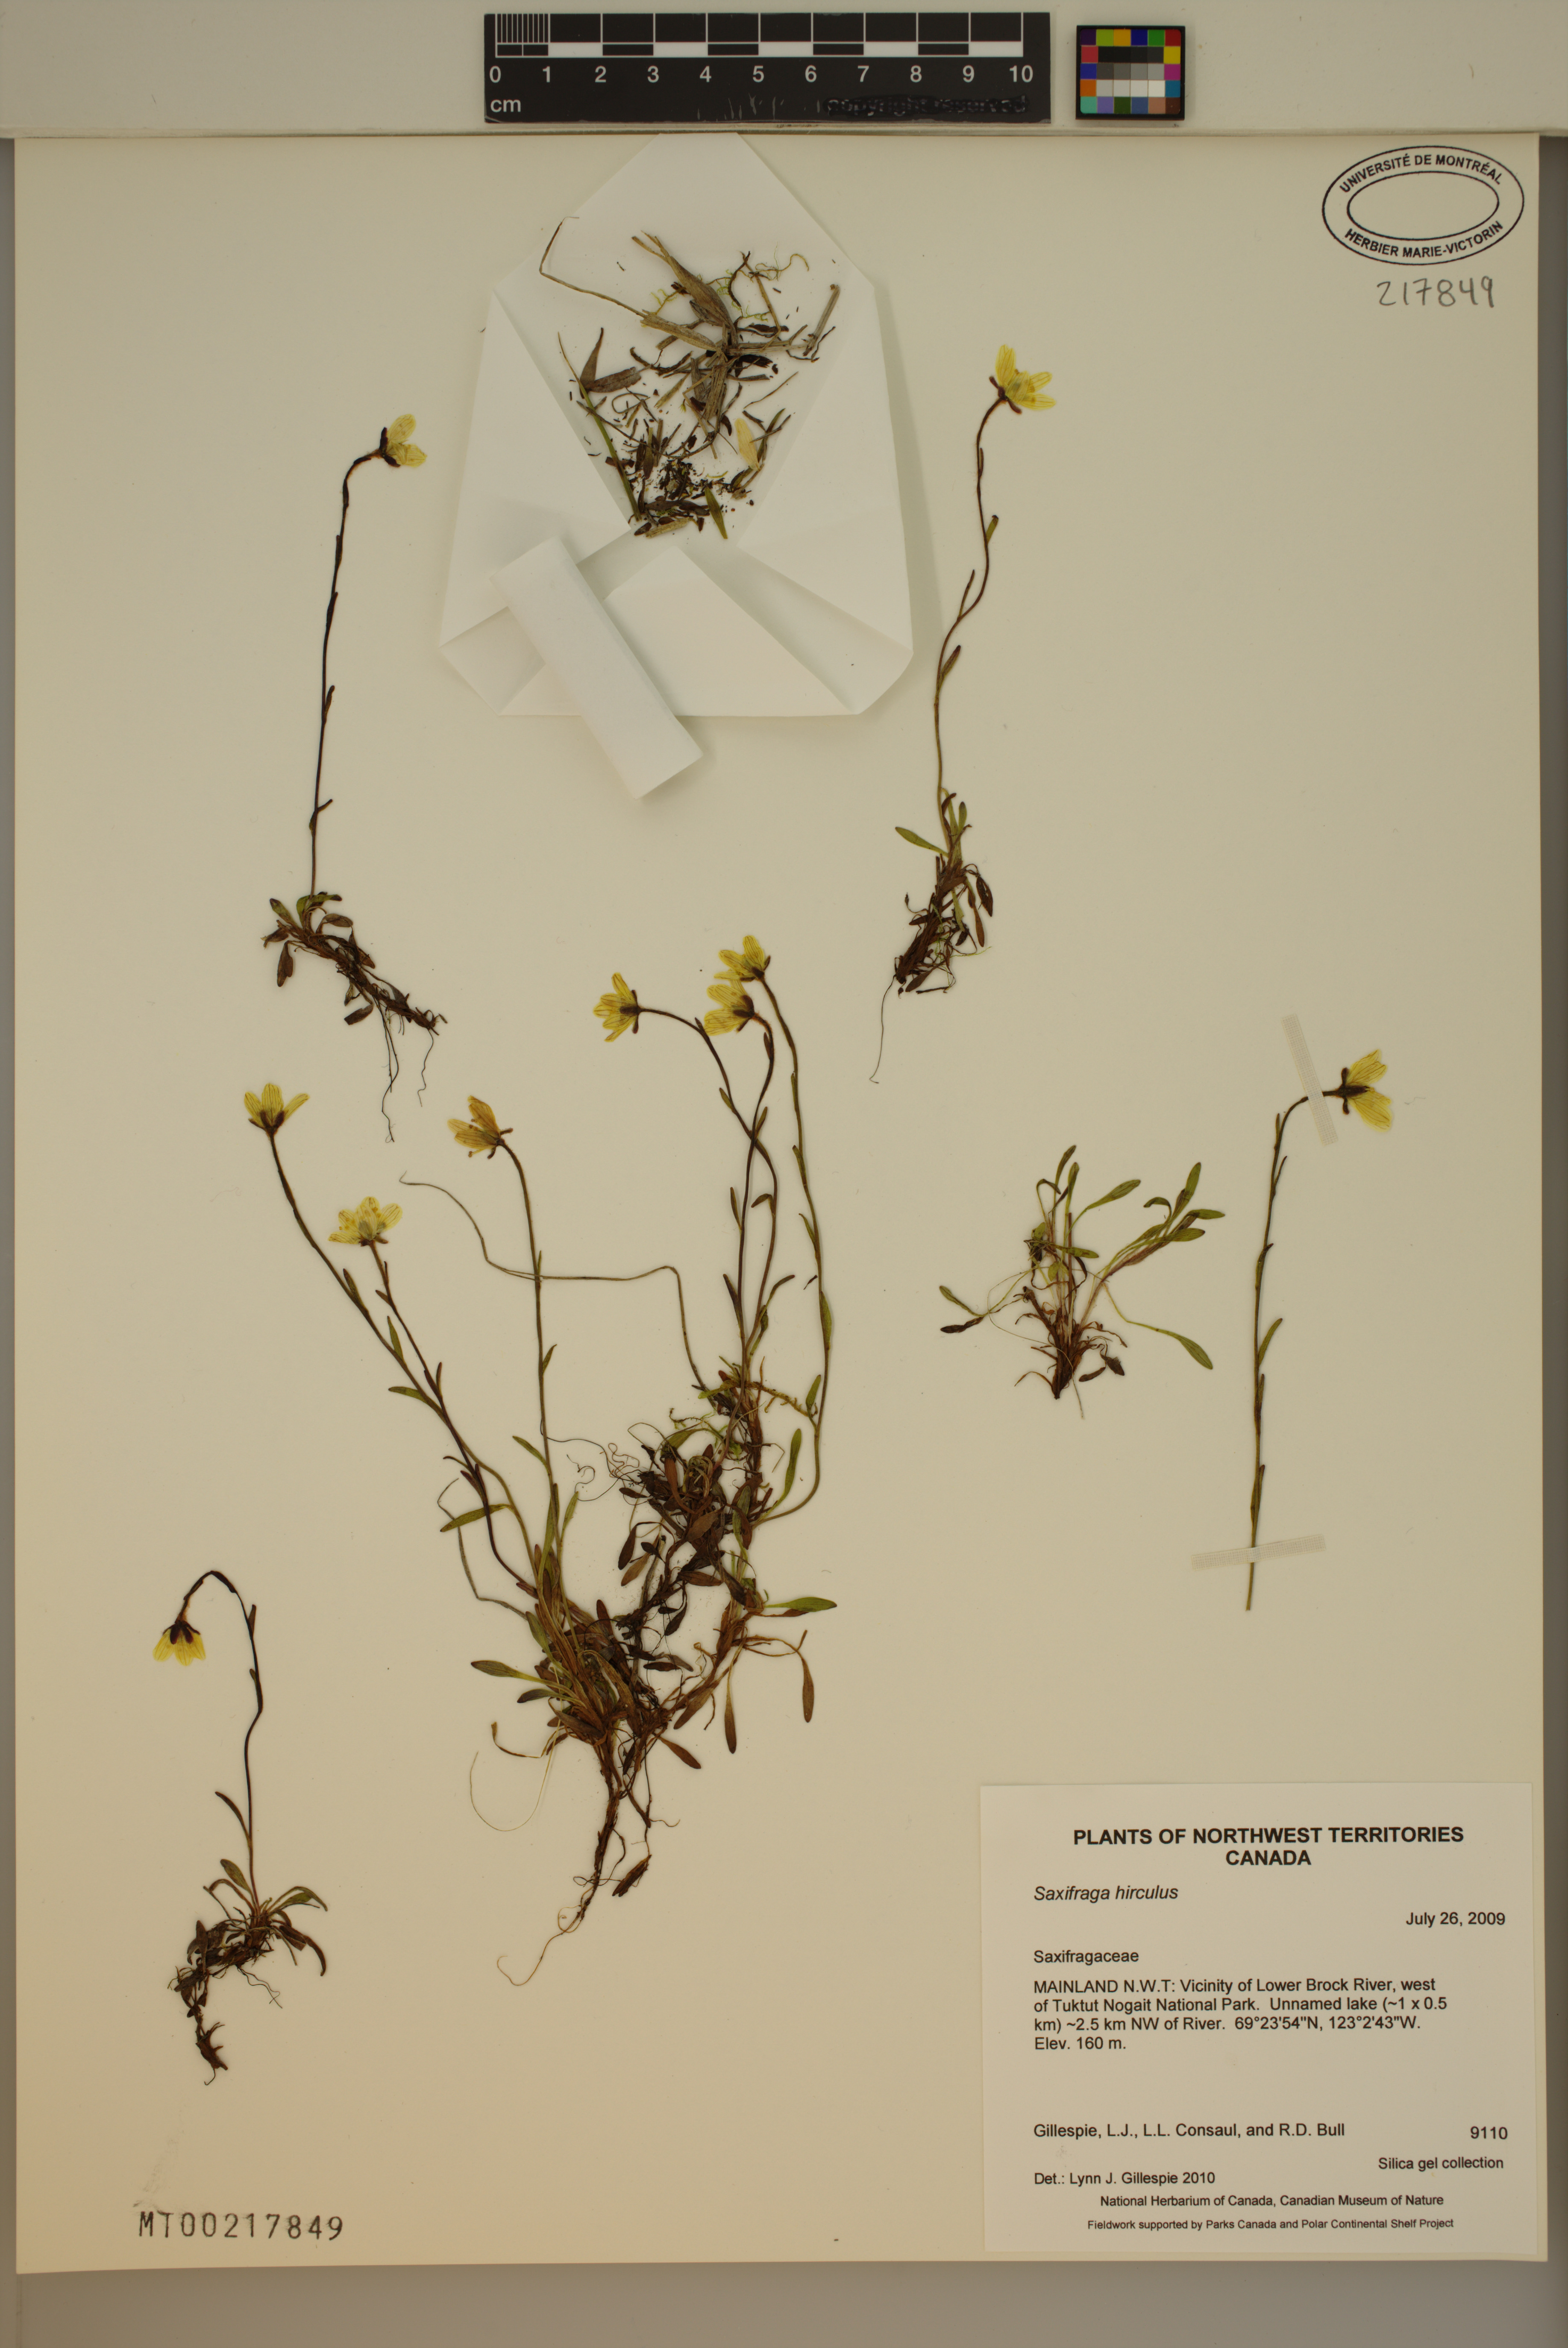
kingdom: Plantae
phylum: Tracheophyta
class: Magnoliopsida
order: Saxifragales
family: Saxifragaceae
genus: Saxifraga
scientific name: Saxifraga hirculus
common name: Yellow marsh saxifrage
